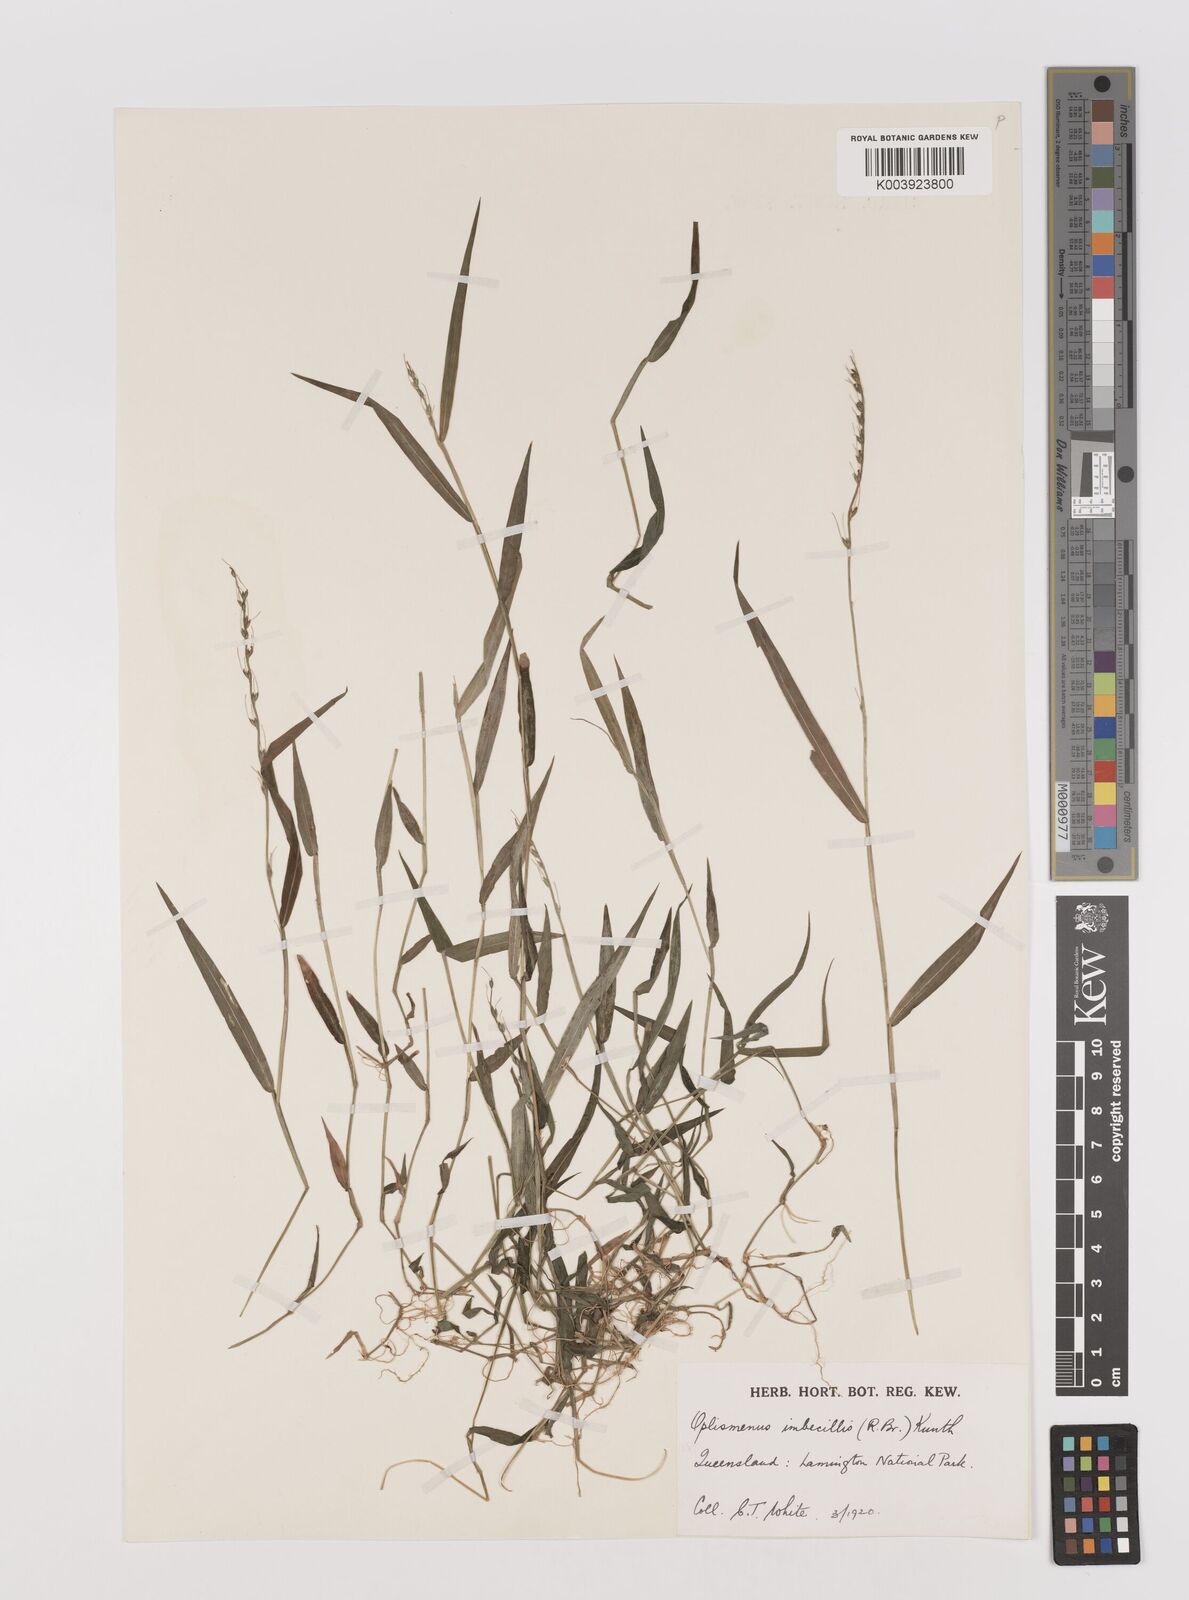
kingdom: Plantae
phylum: Tracheophyta
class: Liliopsida
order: Poales
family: Poaceae
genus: Oplismenus
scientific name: Oplismenus hirtellus
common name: Basketgrass
